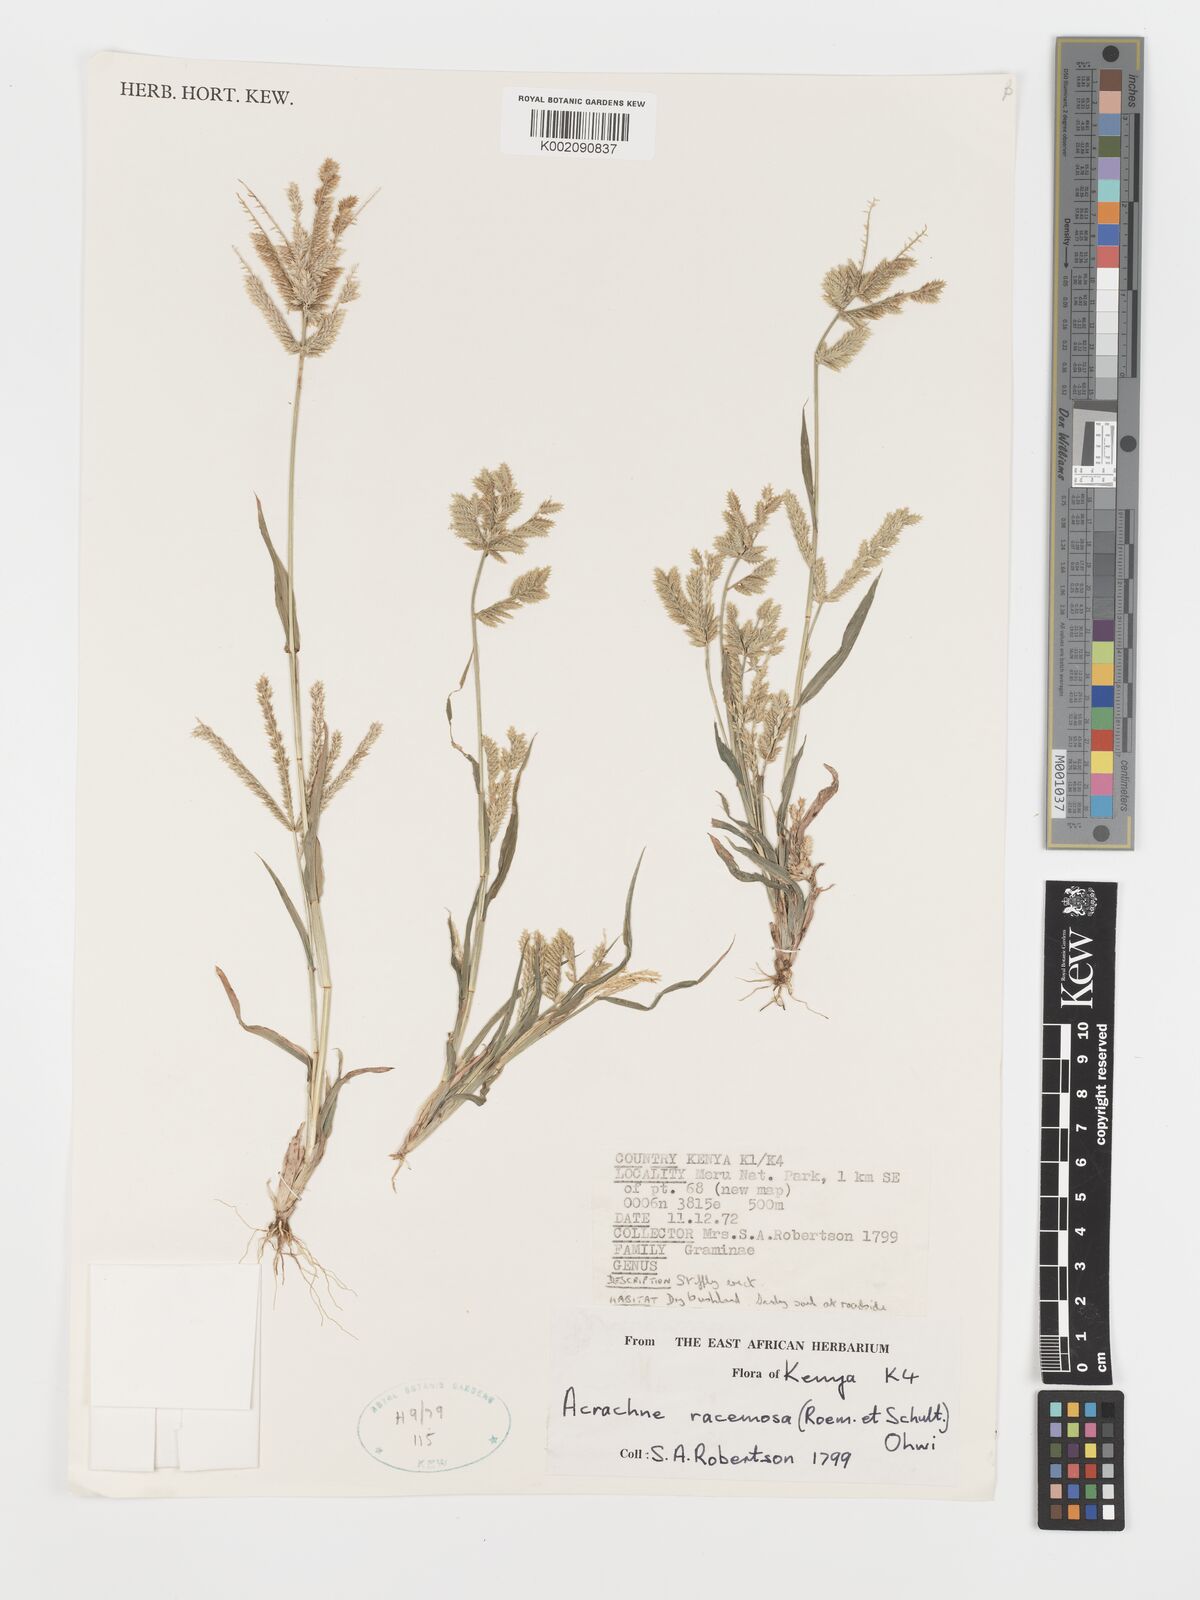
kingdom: Plantae
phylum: Tracheophyta
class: Liliopsida
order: Poales
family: Poaceae
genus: Acrachne
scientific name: Acrachne racemosa
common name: Goosegrass
